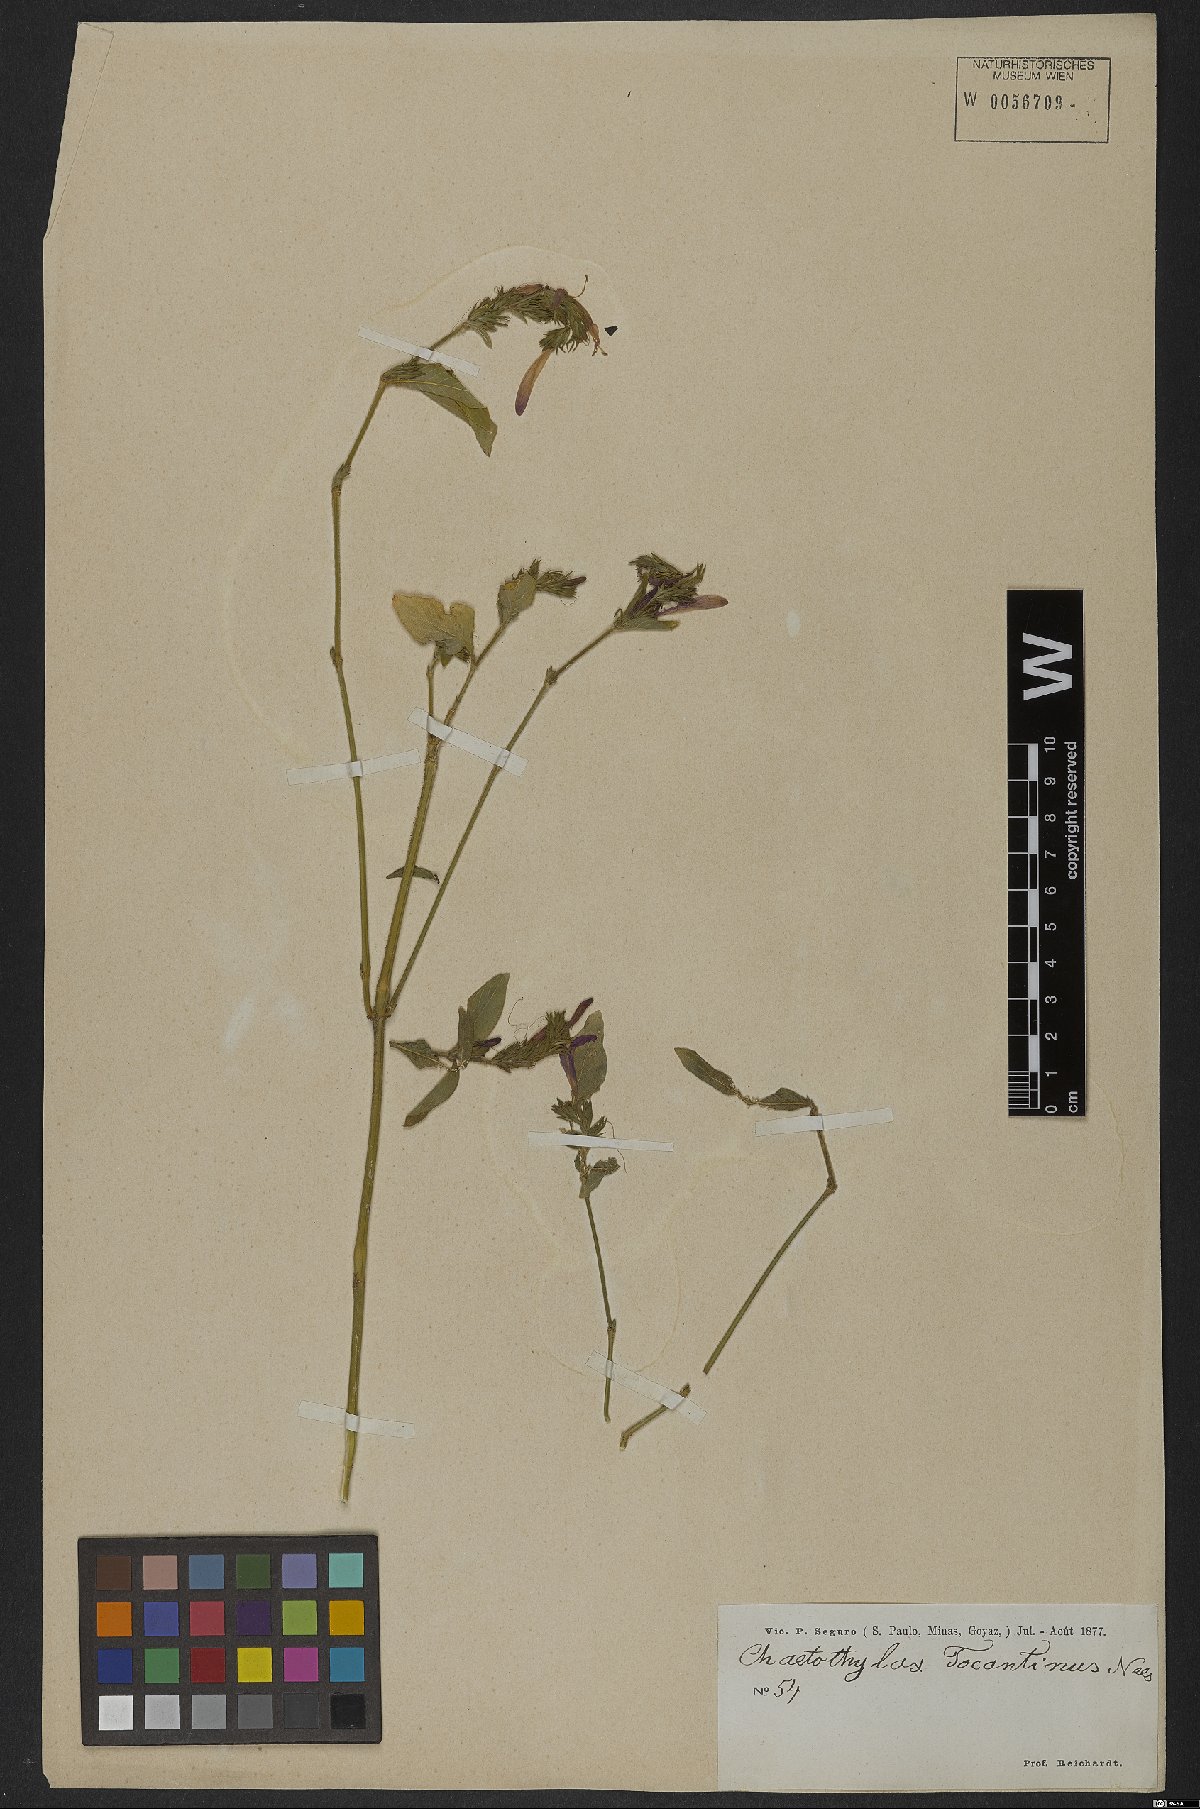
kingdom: Plantae
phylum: Tracheophyta
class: Magnoliopsida
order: Lamiales
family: Acanthaceae
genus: Justicia
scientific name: Justicia tocantina
